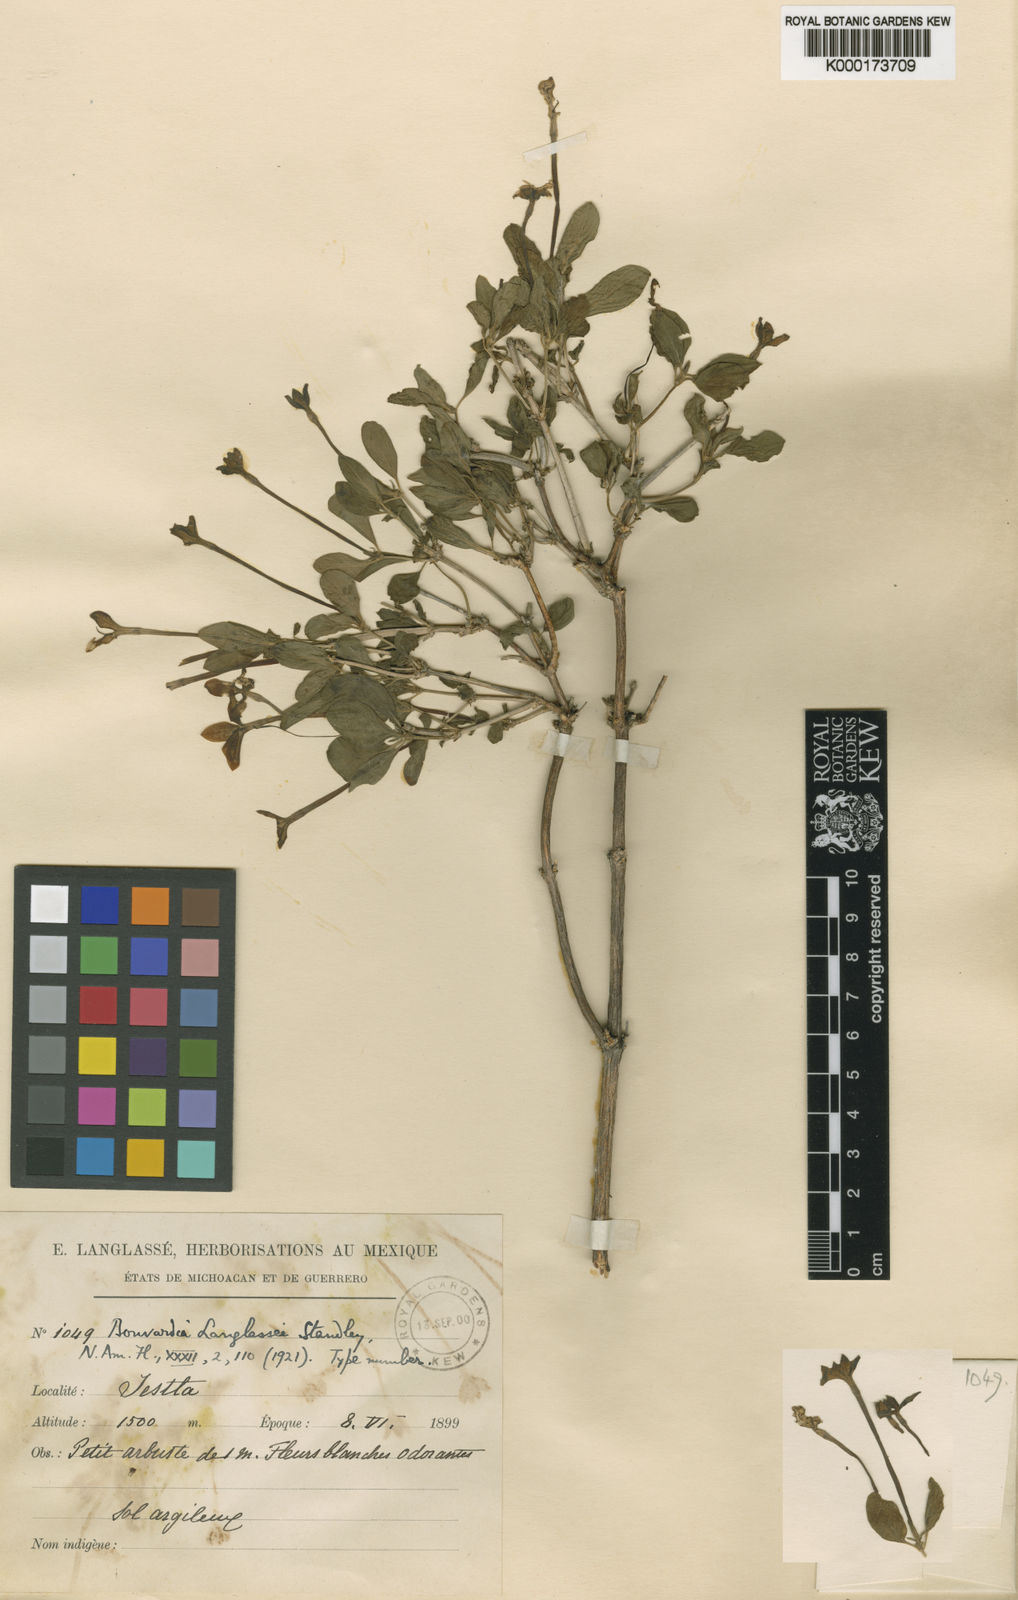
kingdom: Plantae
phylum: Tracheophyta
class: Magnoliopsida
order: Gentianales
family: Rubiaceae
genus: Bouvardia
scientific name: Bouvardia langlassei
